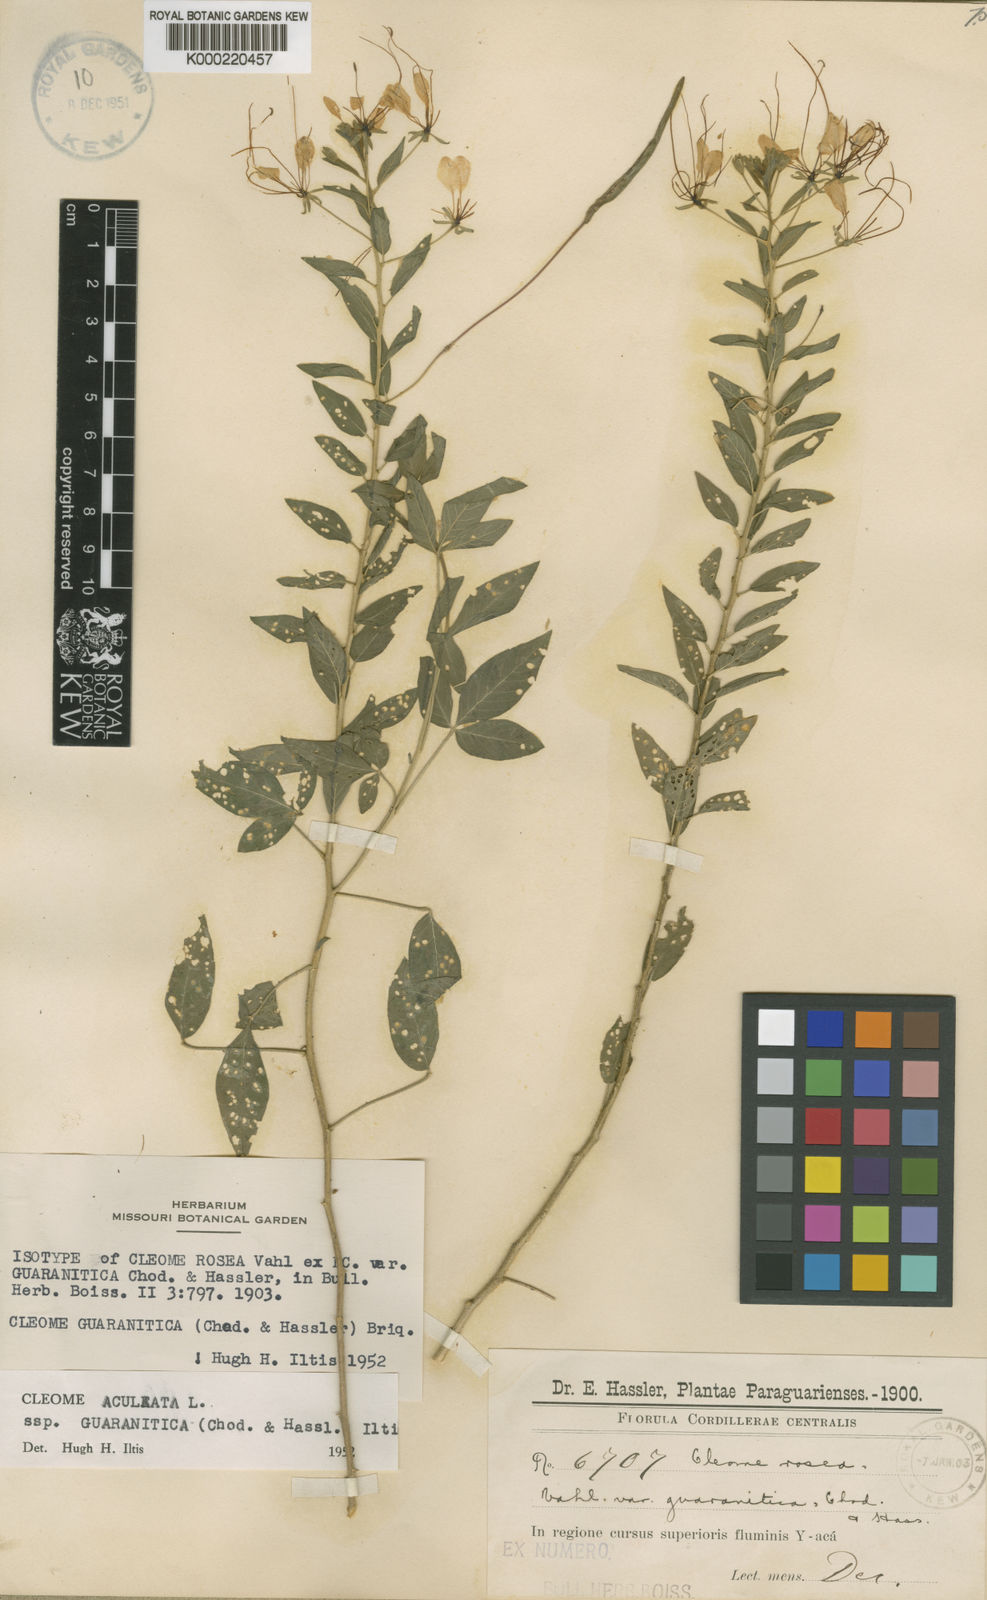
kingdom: Plantae
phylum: Tracheophyta
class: Magnoliopsida
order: Brassicales
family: Cleomaceae
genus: Tarenaya
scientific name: Tarenaya guaranitica
